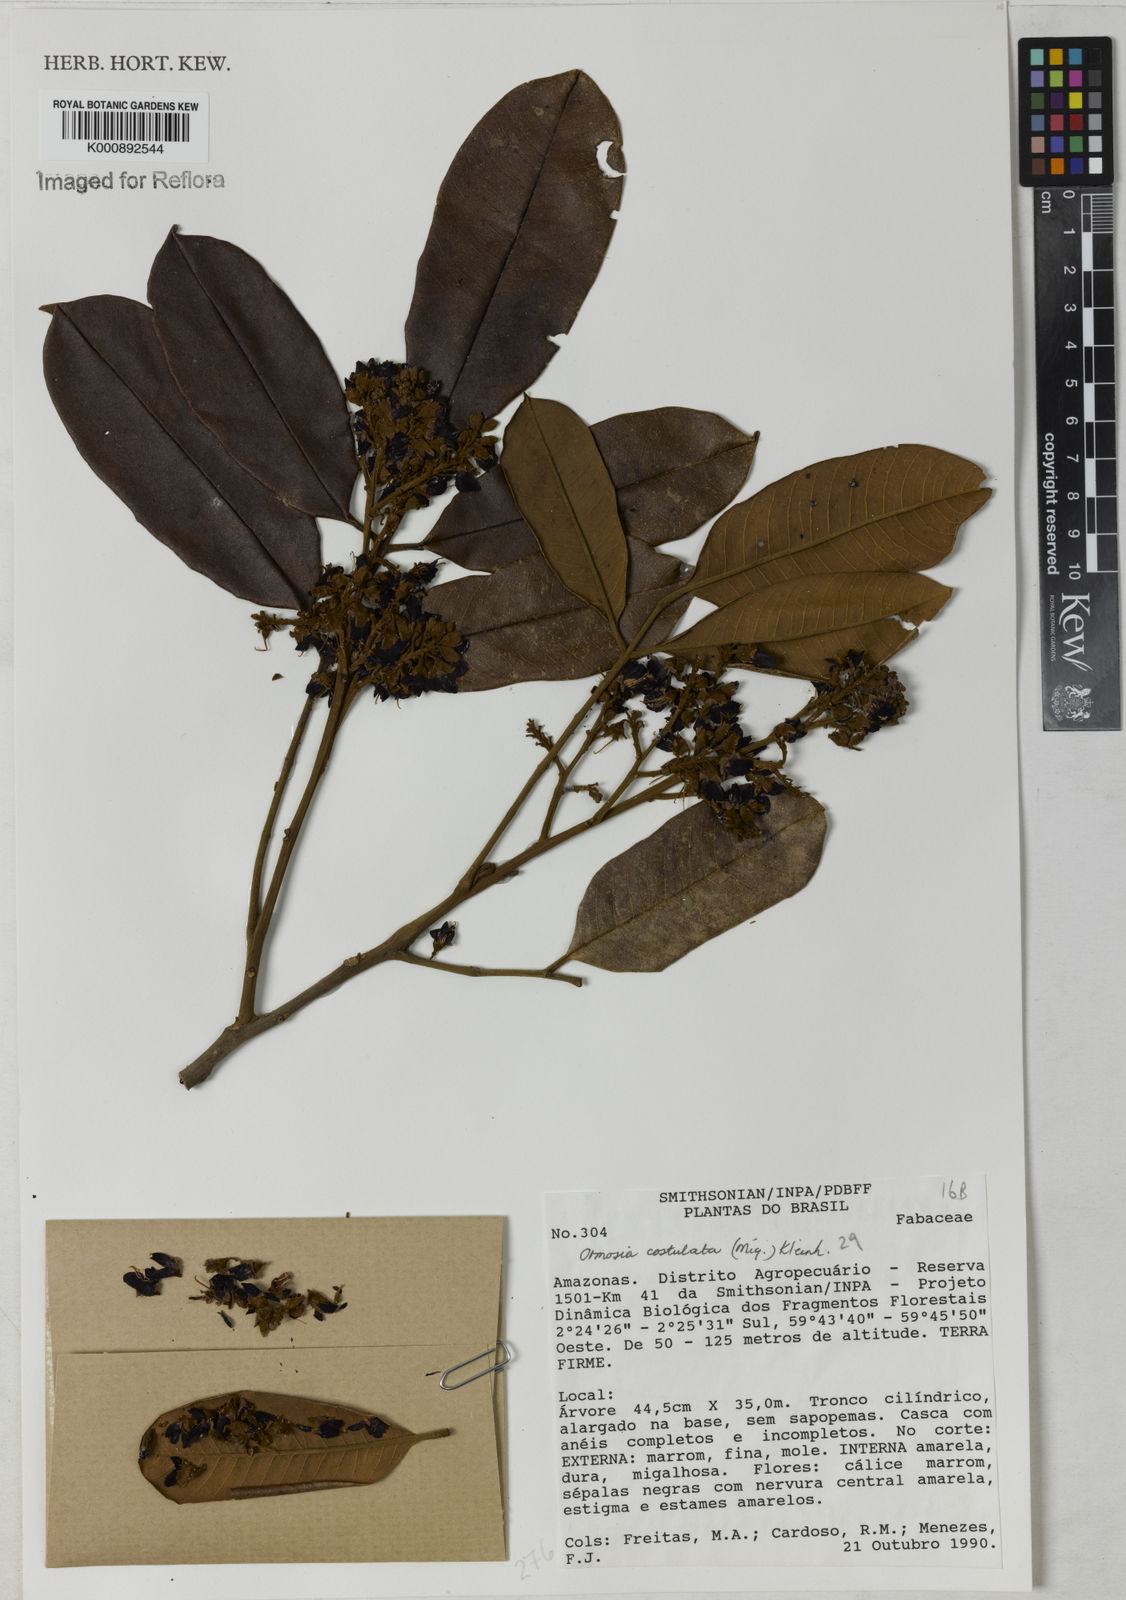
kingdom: Plantae
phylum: Tracheophyta
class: Magnoliopsida
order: Fabales
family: Fabaceae
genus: Ormosia
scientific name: Ormosia costulata
